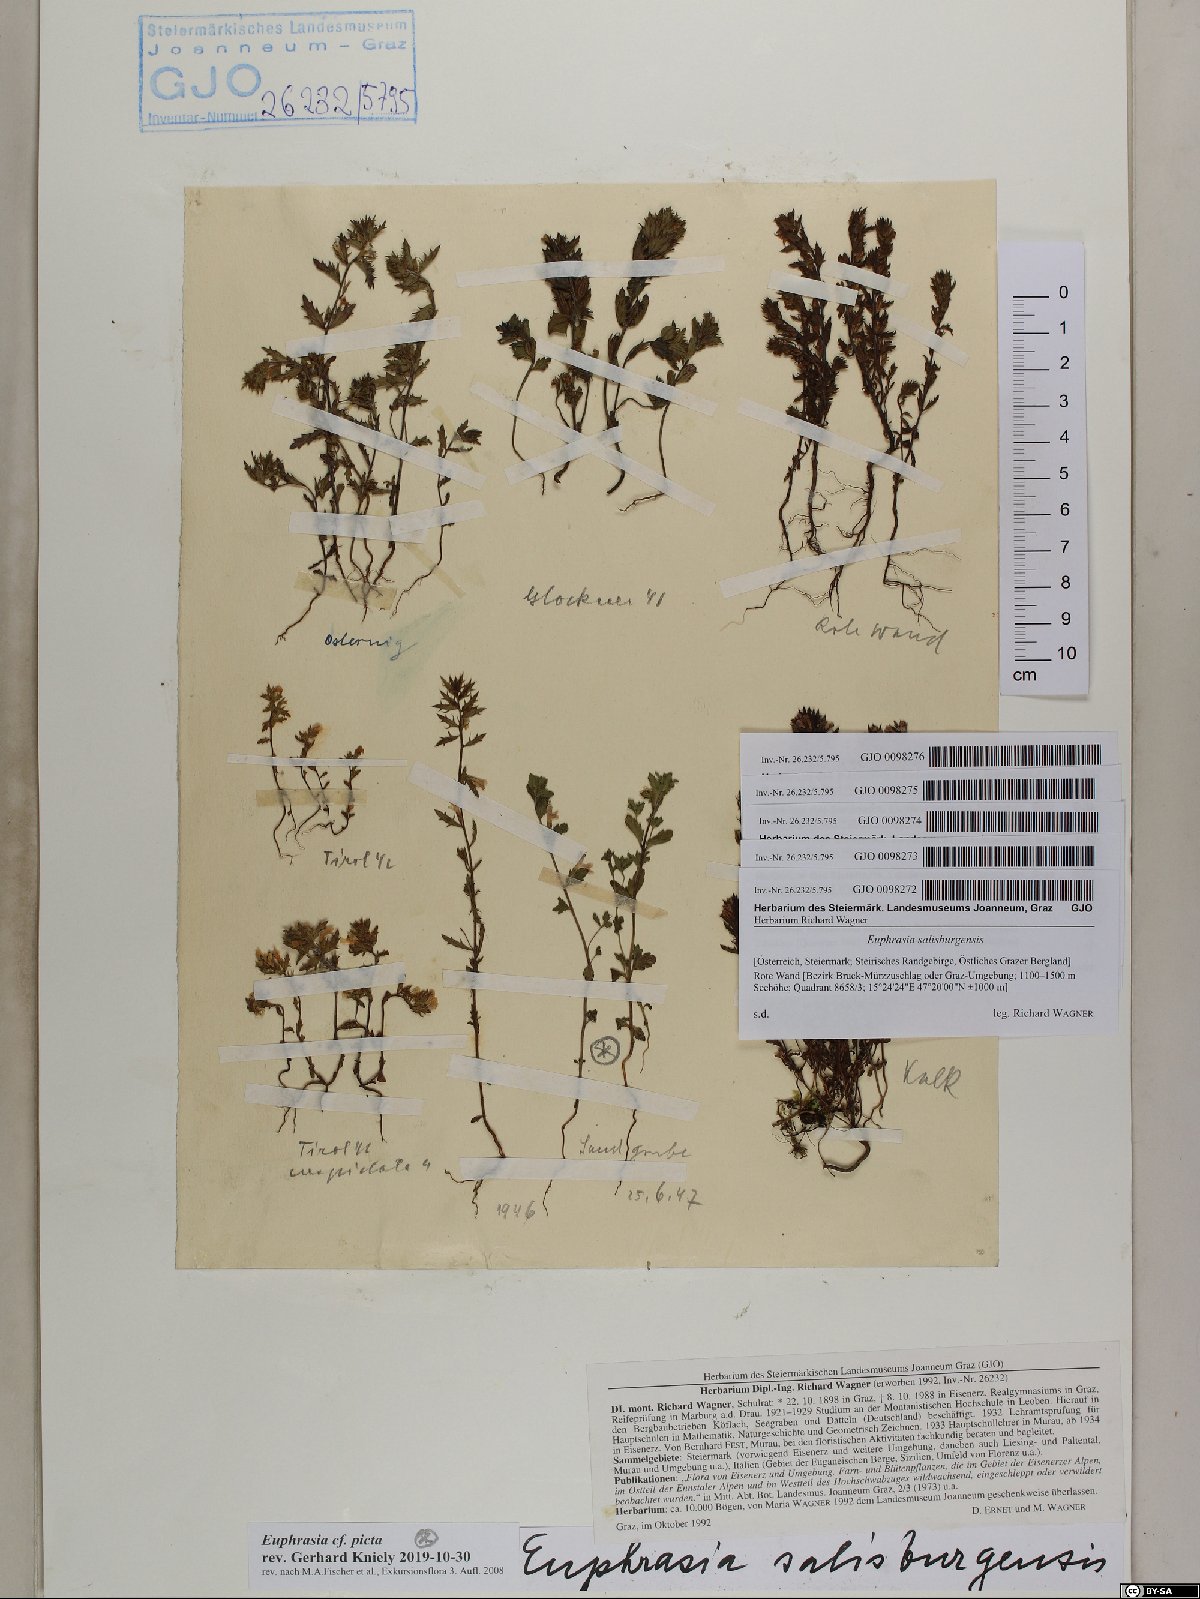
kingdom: Plantae
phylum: Tracheophyta
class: Magnoliopsida
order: Lamiales
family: Orobanchaceae
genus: Euphrasia
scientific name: Euphrasia salisburgensis
